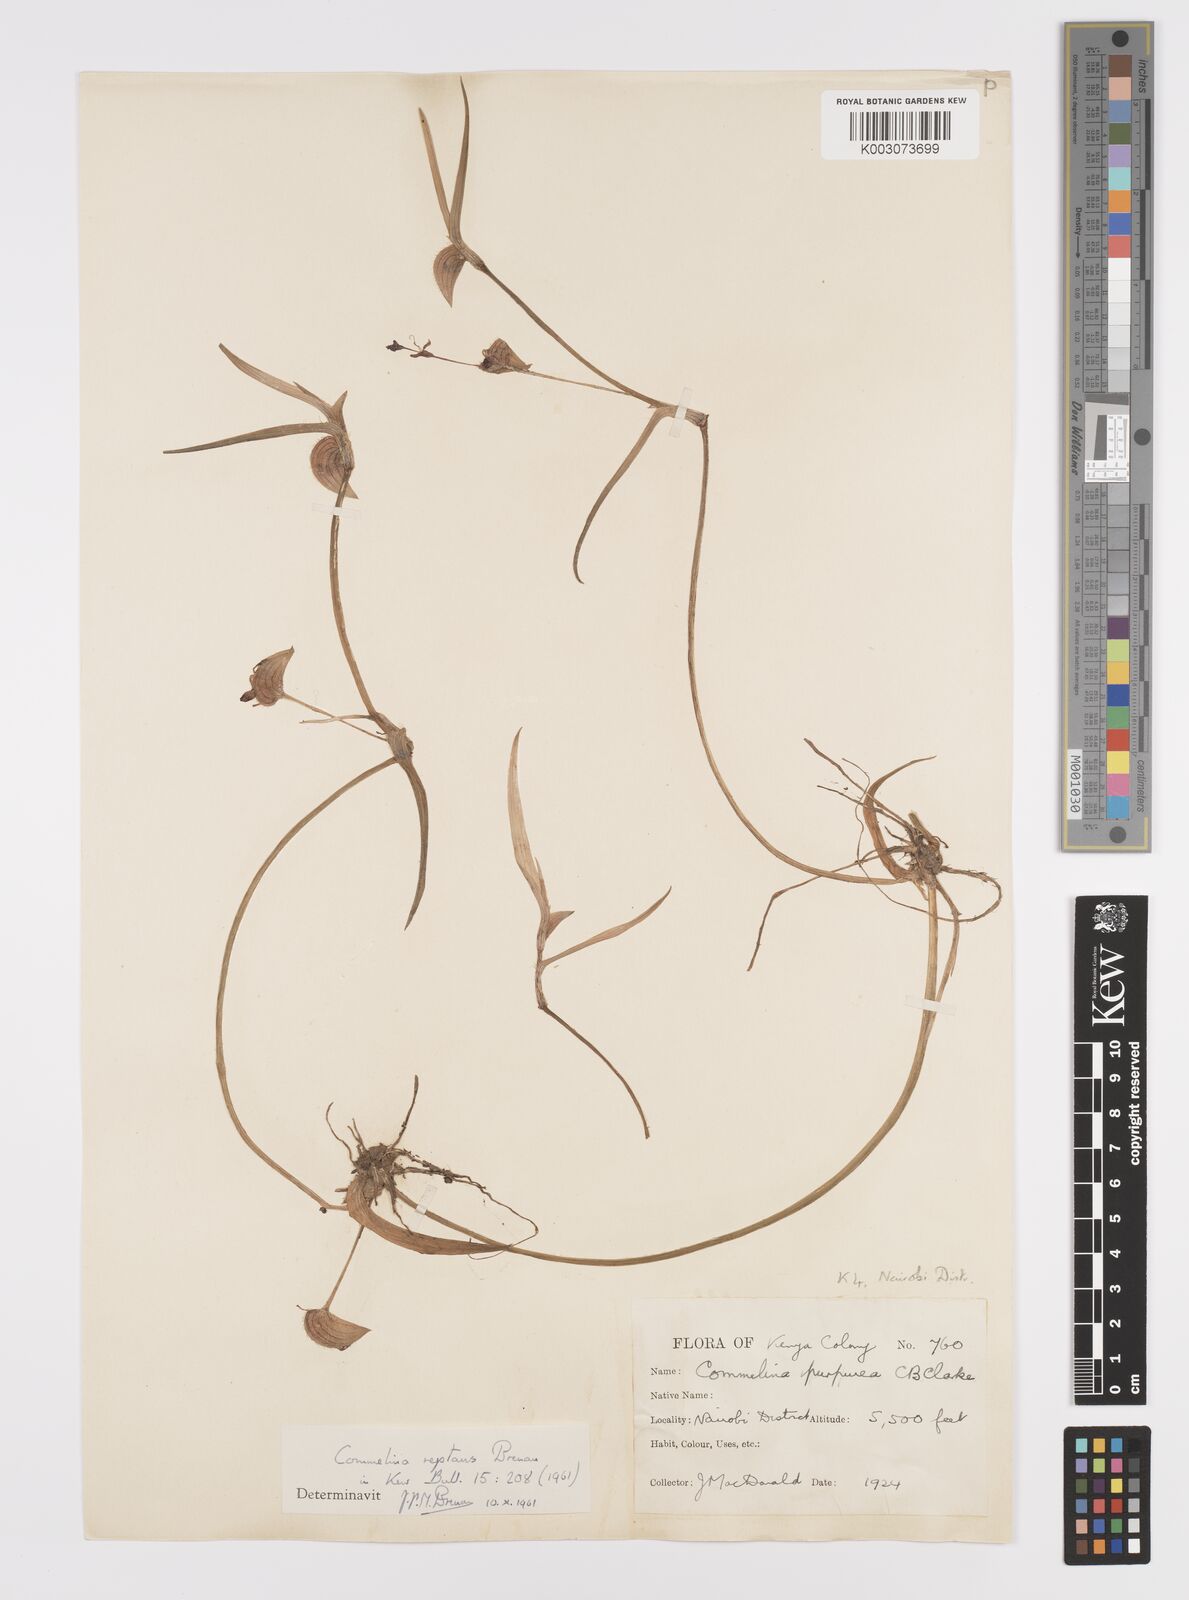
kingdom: Plantae
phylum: Tracheophyta
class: Liliopsida
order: Commelinales
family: Commelinaceae
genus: Commelina
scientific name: Commelina reptans
